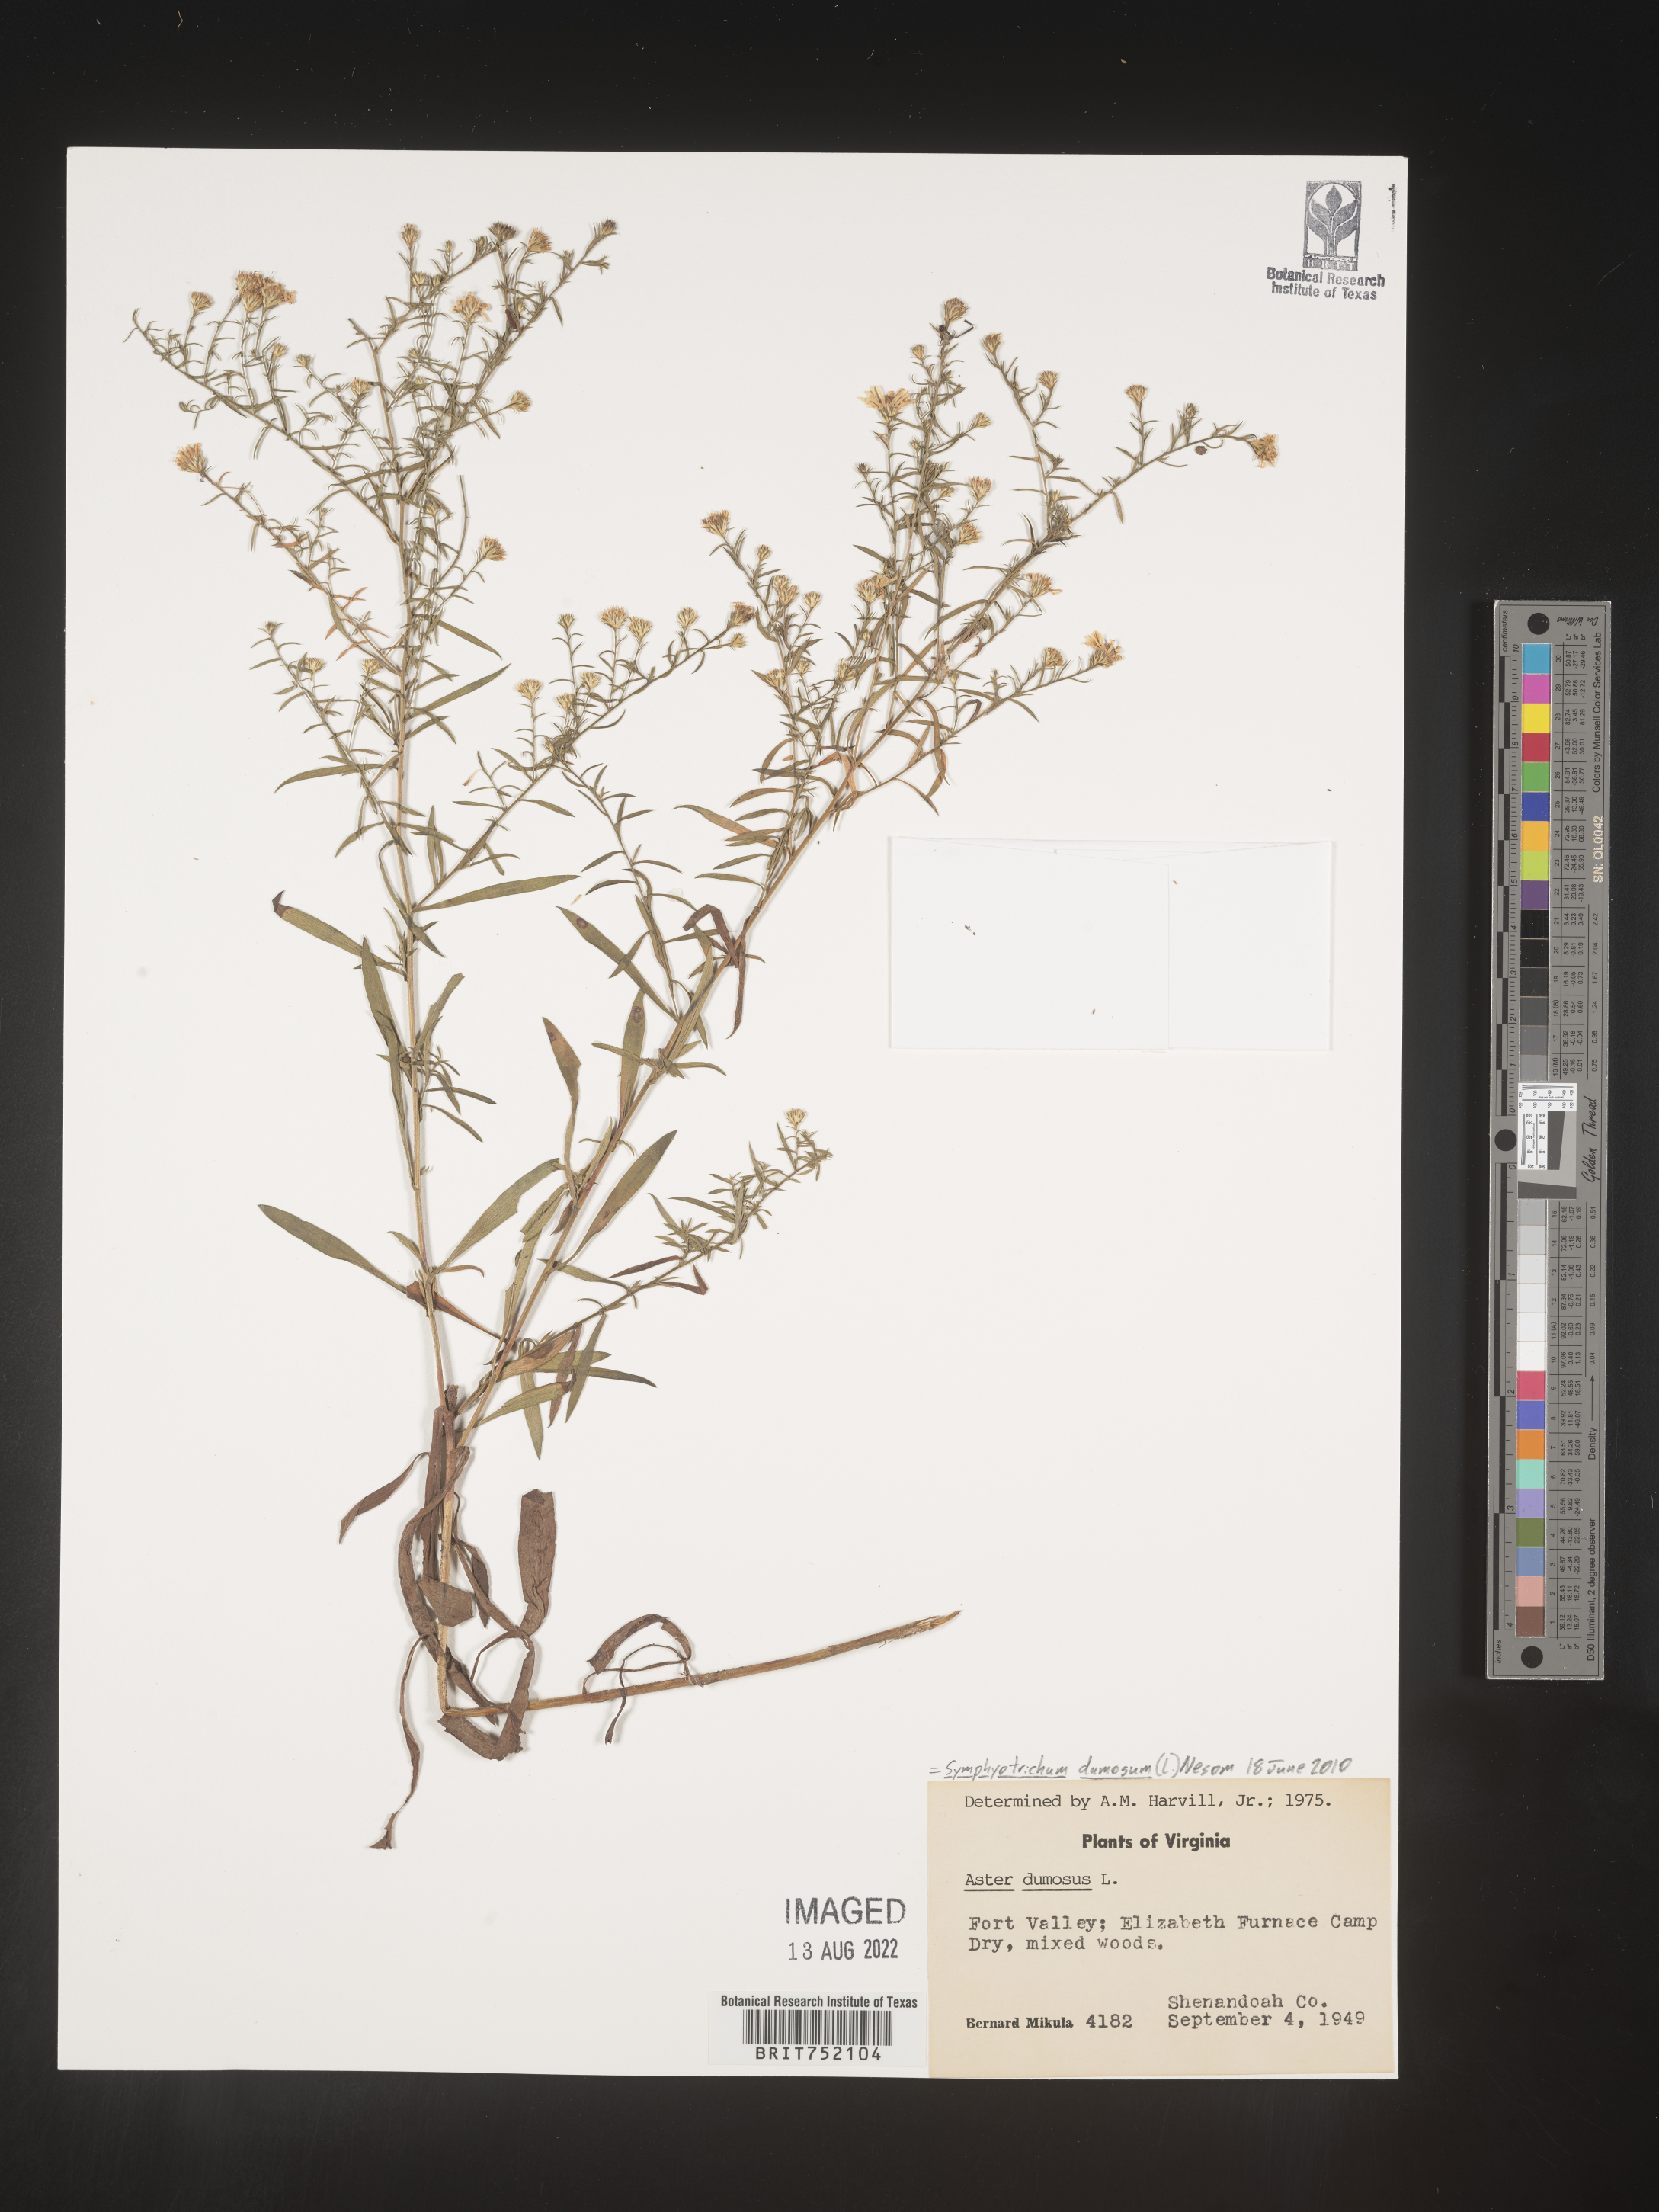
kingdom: Plantae
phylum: Tracheophyta
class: Magnoliopsida
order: Asterales
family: Asteraceae
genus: Symphyotrichum
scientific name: Symphyotrichum dumosum
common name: Bushy aster
